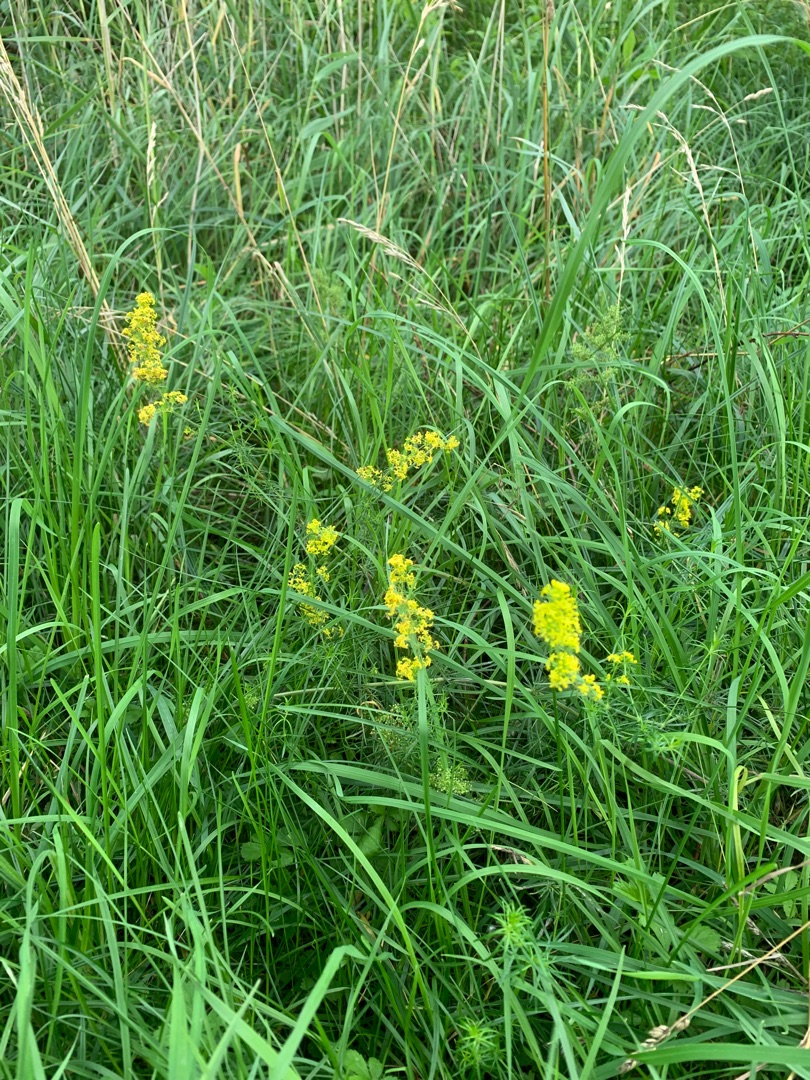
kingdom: Plantae
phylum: Tracheophyta
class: Magnoliopsida
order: Gentianales
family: Rubiaceae
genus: Galium
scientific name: Galium verum
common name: Gul snerre
